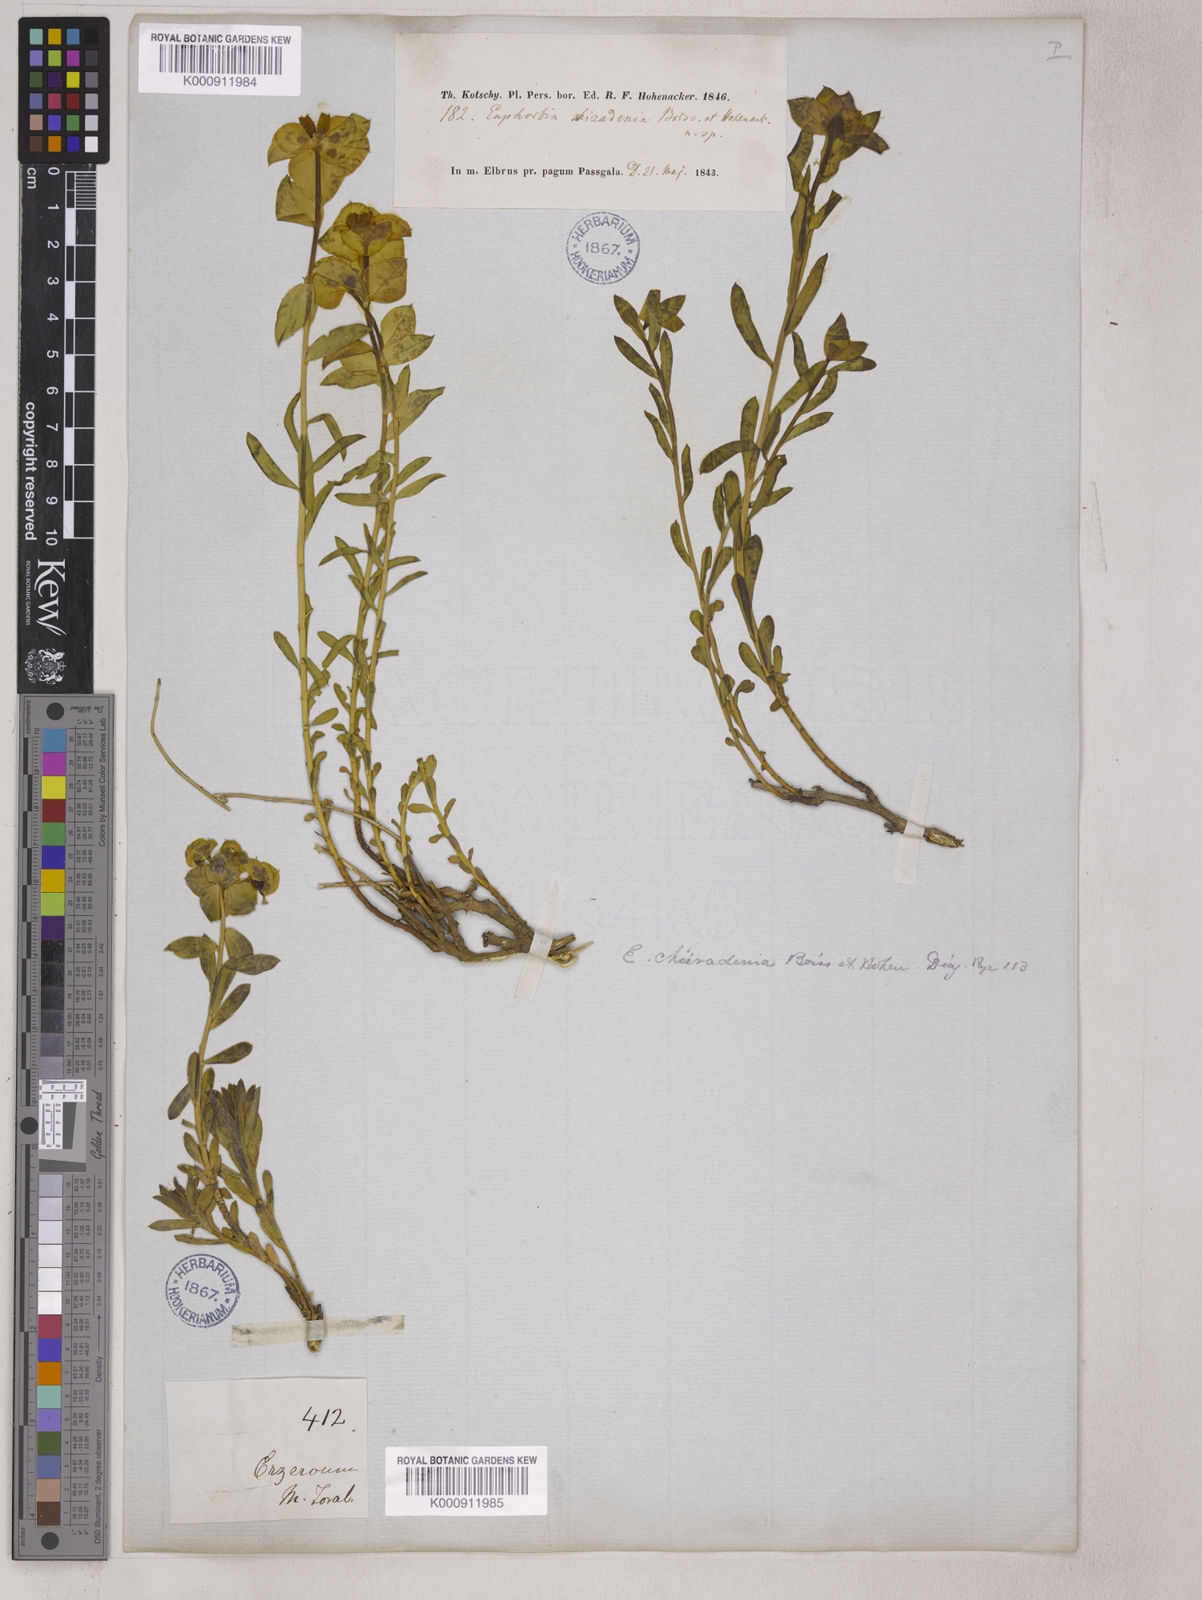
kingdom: Plantae
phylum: Tracheophyta
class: Magnoliopsida
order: Malpighiales
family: Euphorbiaceae
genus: Euphorbia
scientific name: Euphorbia cheiradenia
